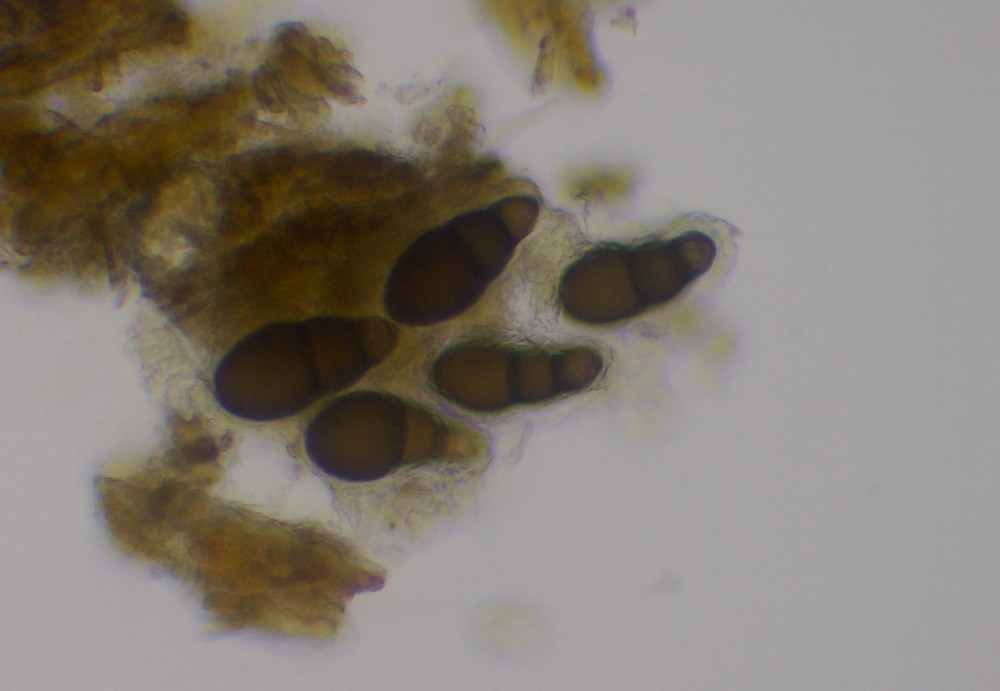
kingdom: Fungi
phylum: Ascomycota
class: Dothideomycetes
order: Pleosporales
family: Pleomassariaceae
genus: Splanchnonema
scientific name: Splanchnonema foedans
